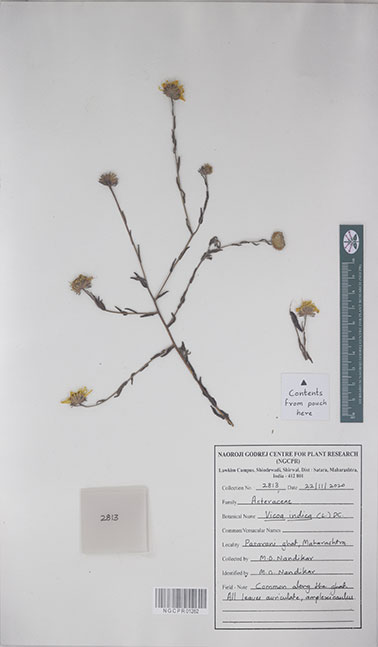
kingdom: Plantae
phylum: Tracheophyta
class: Magnoliopsida
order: Asterales
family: Asteraceae
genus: Vicoa
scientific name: Vicoa indica
